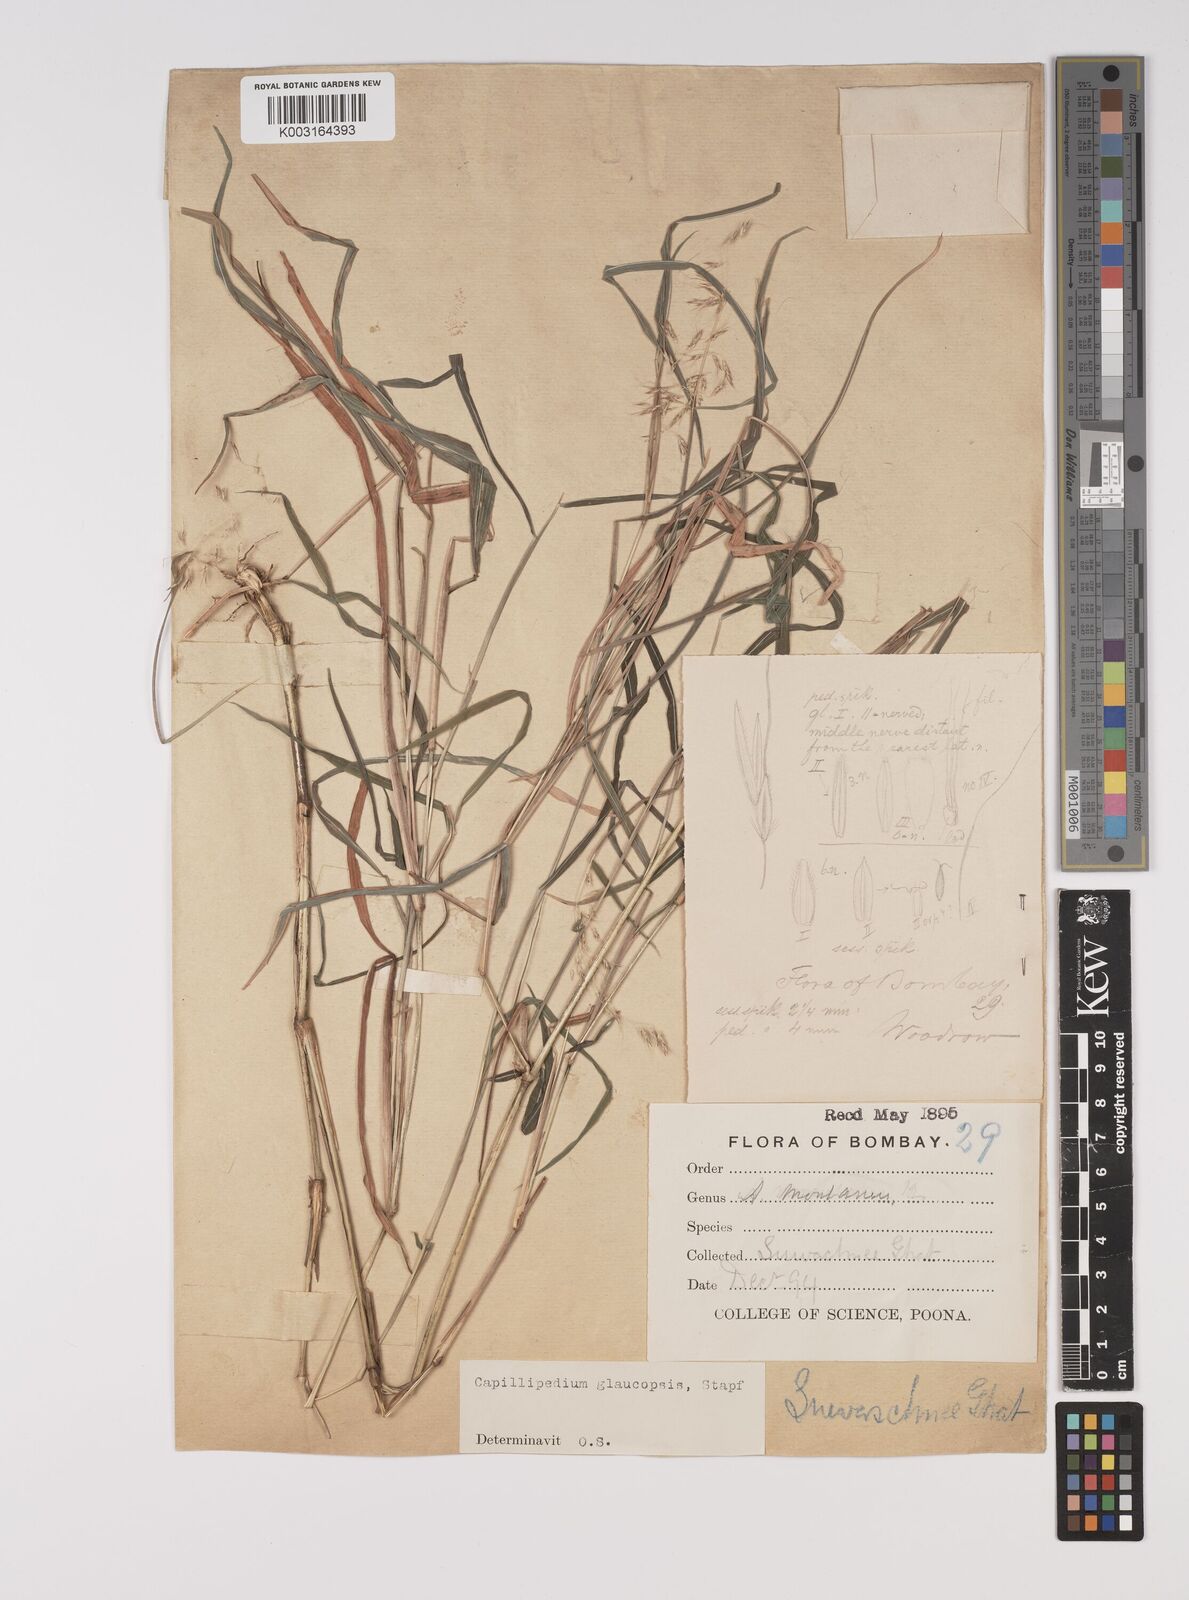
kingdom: Plantae
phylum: Tracheophyta
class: Liliopsida
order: Poales
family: Poaceae
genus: Capillipedium
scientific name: Capillipedium assimile
